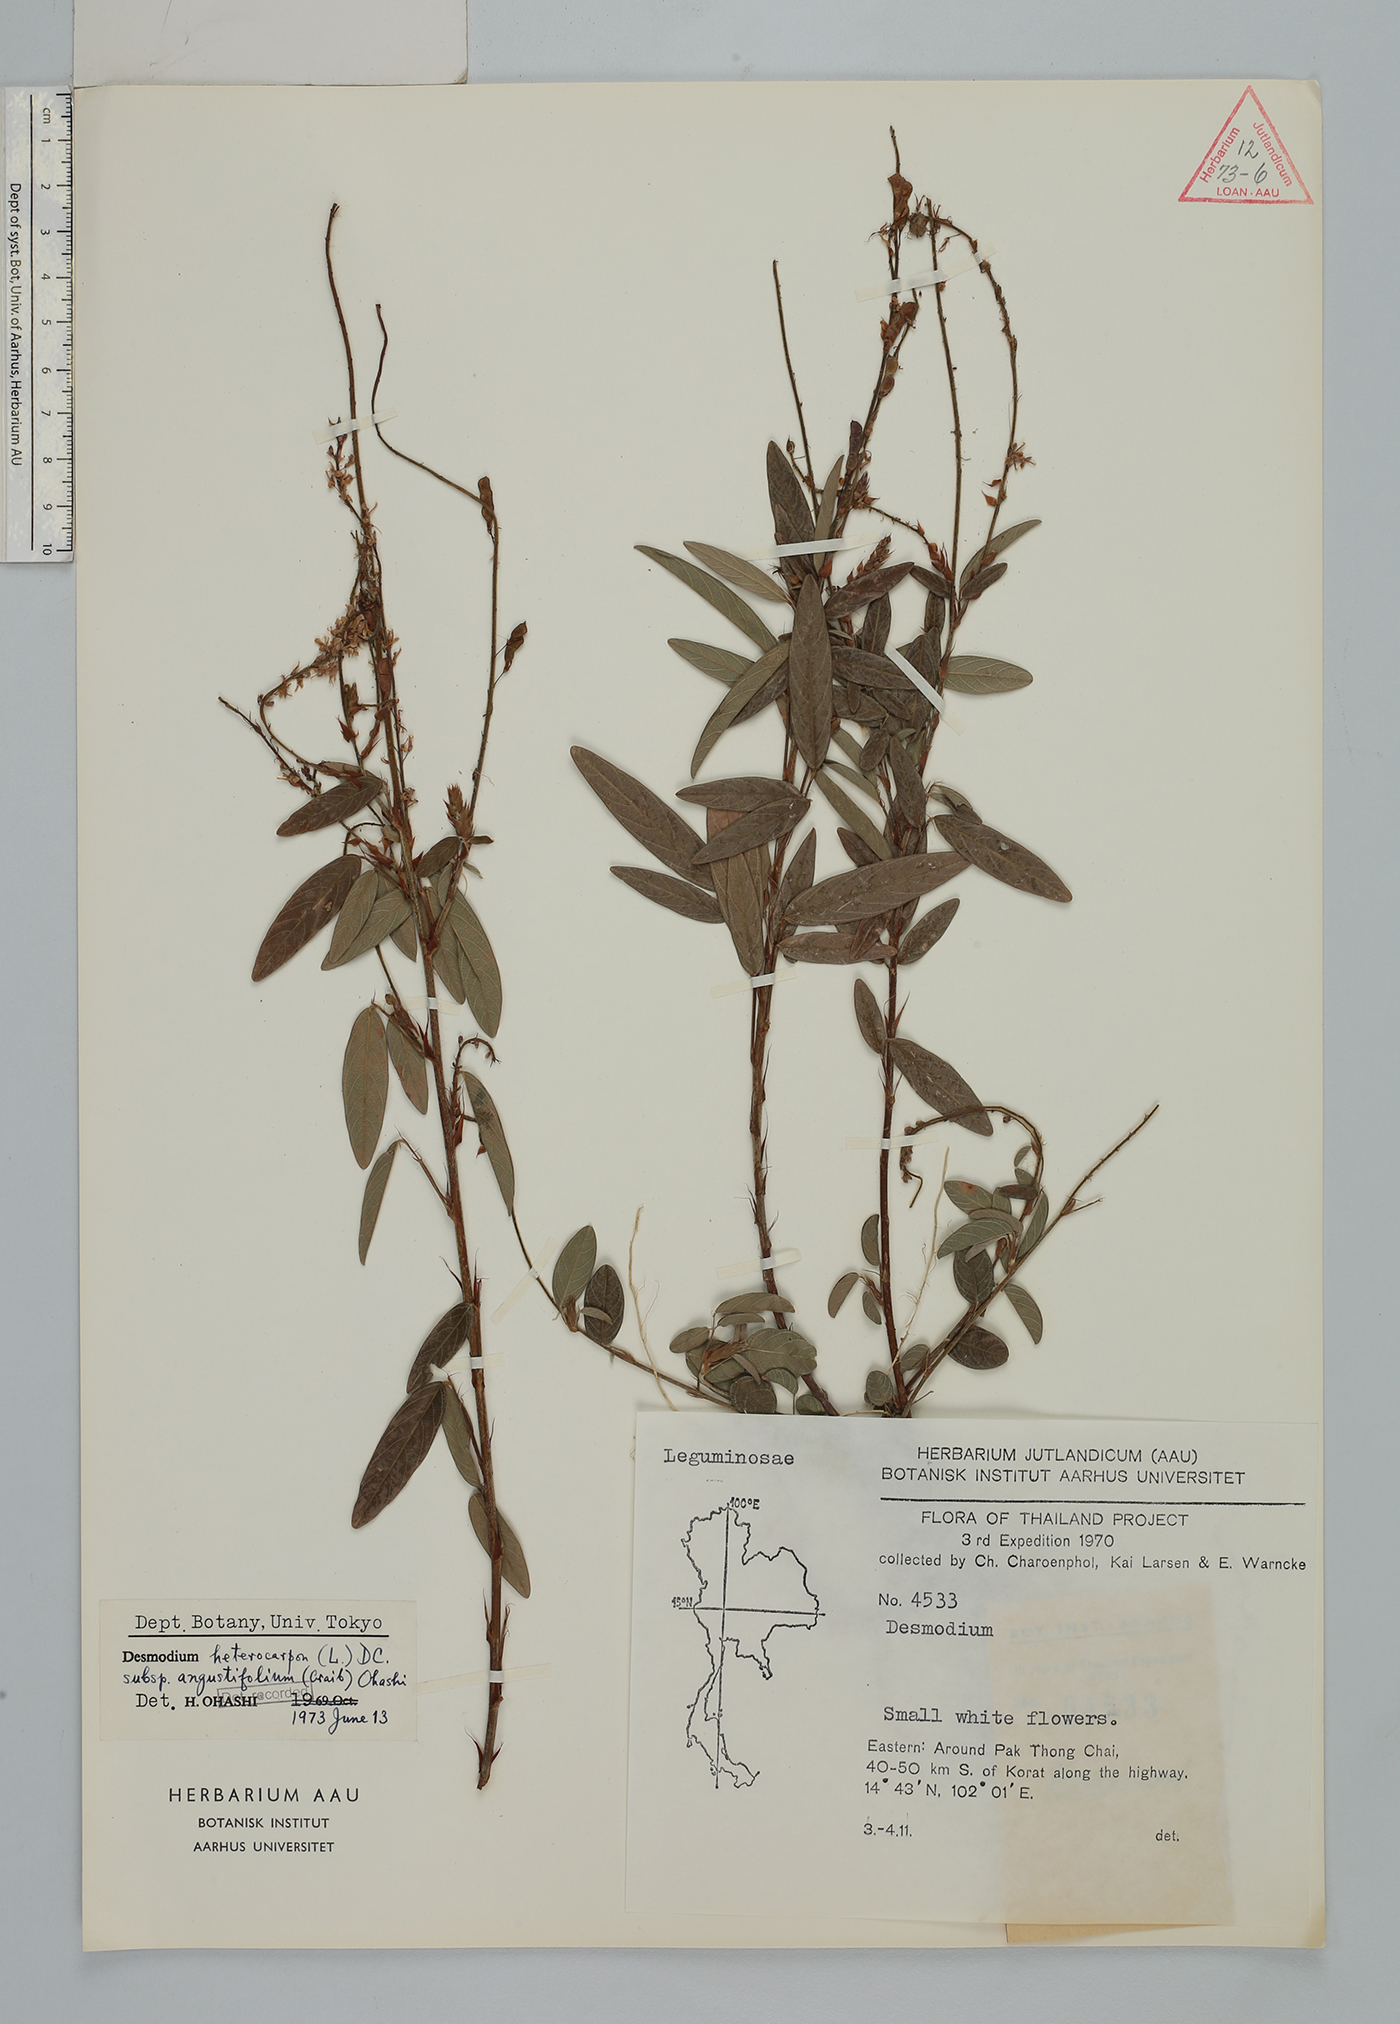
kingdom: Plantae
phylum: Tracheophyta
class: Magnoliopsida
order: Fabales
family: Fabaceae
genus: Grona
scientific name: Grona heterocarpos
